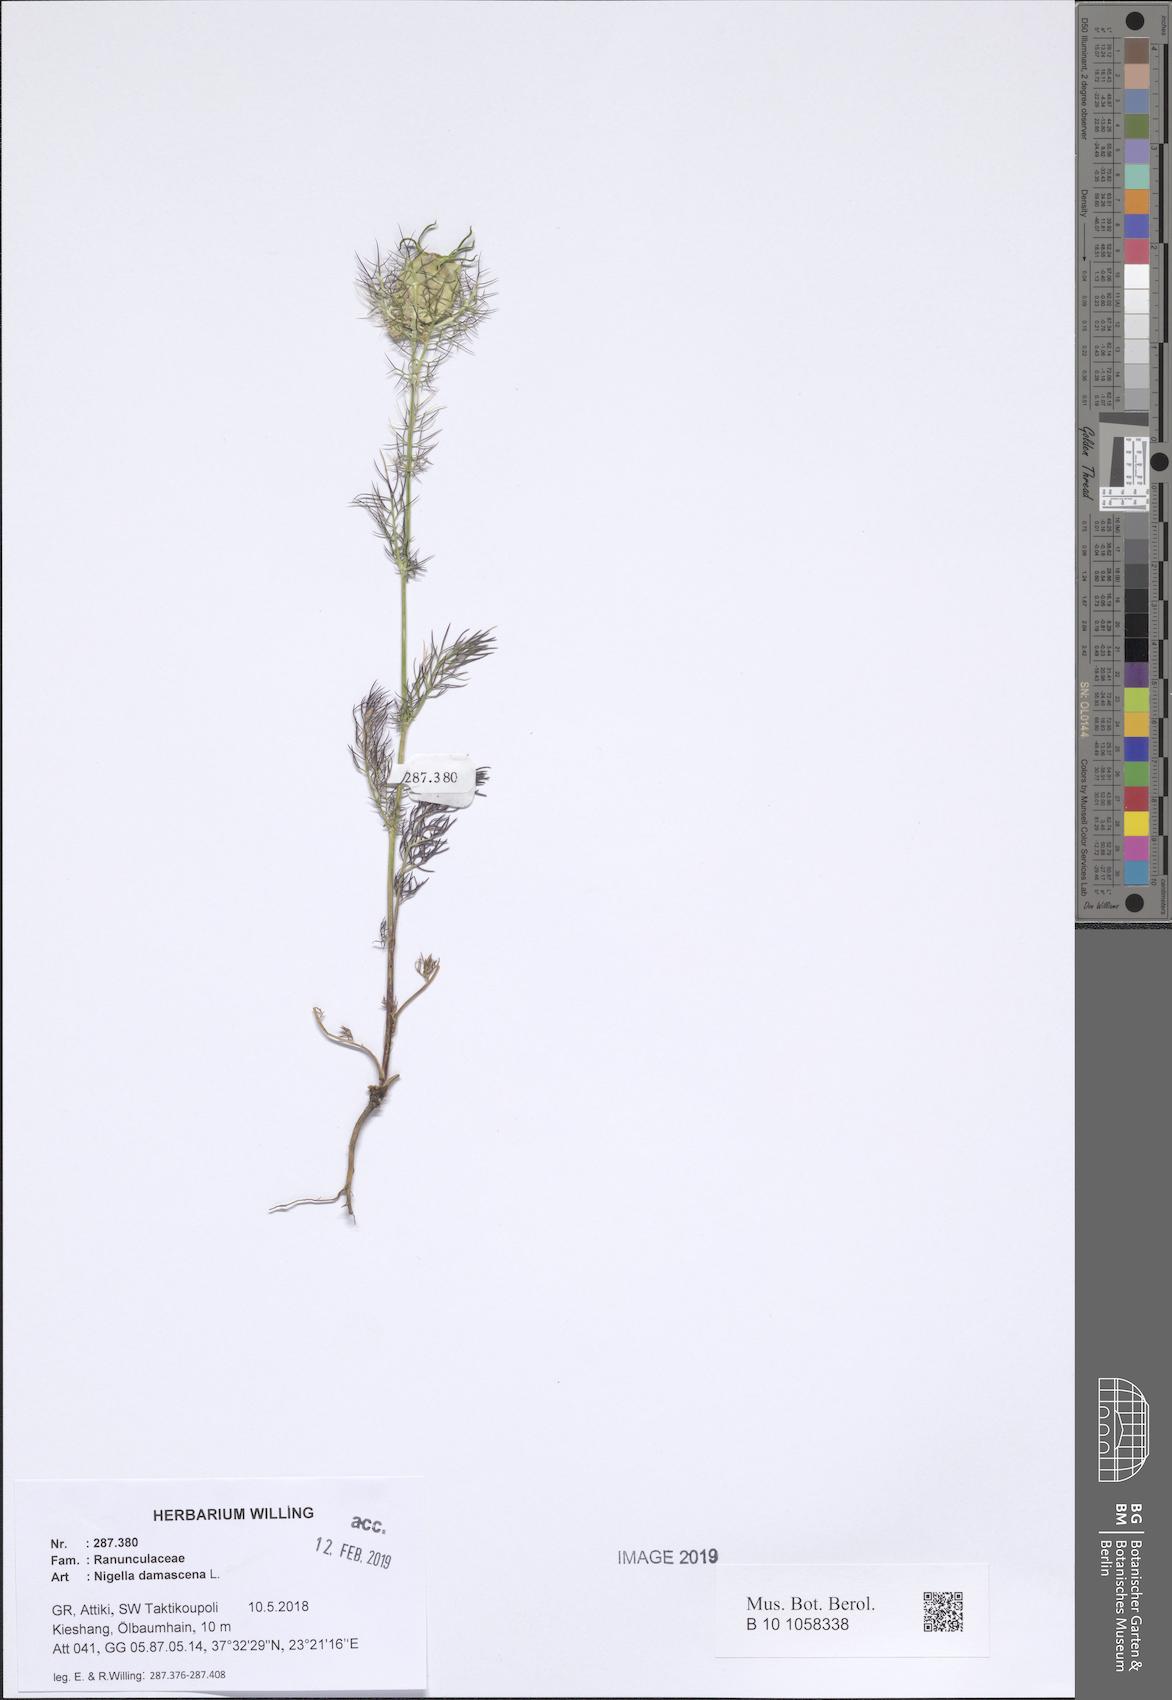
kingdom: Plantae
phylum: Tracheophyta
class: Magnoliopsida
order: Ranunculales
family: Ranunculaceae
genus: Nigella
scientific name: Nigella damascena
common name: Love-in-a-mist
